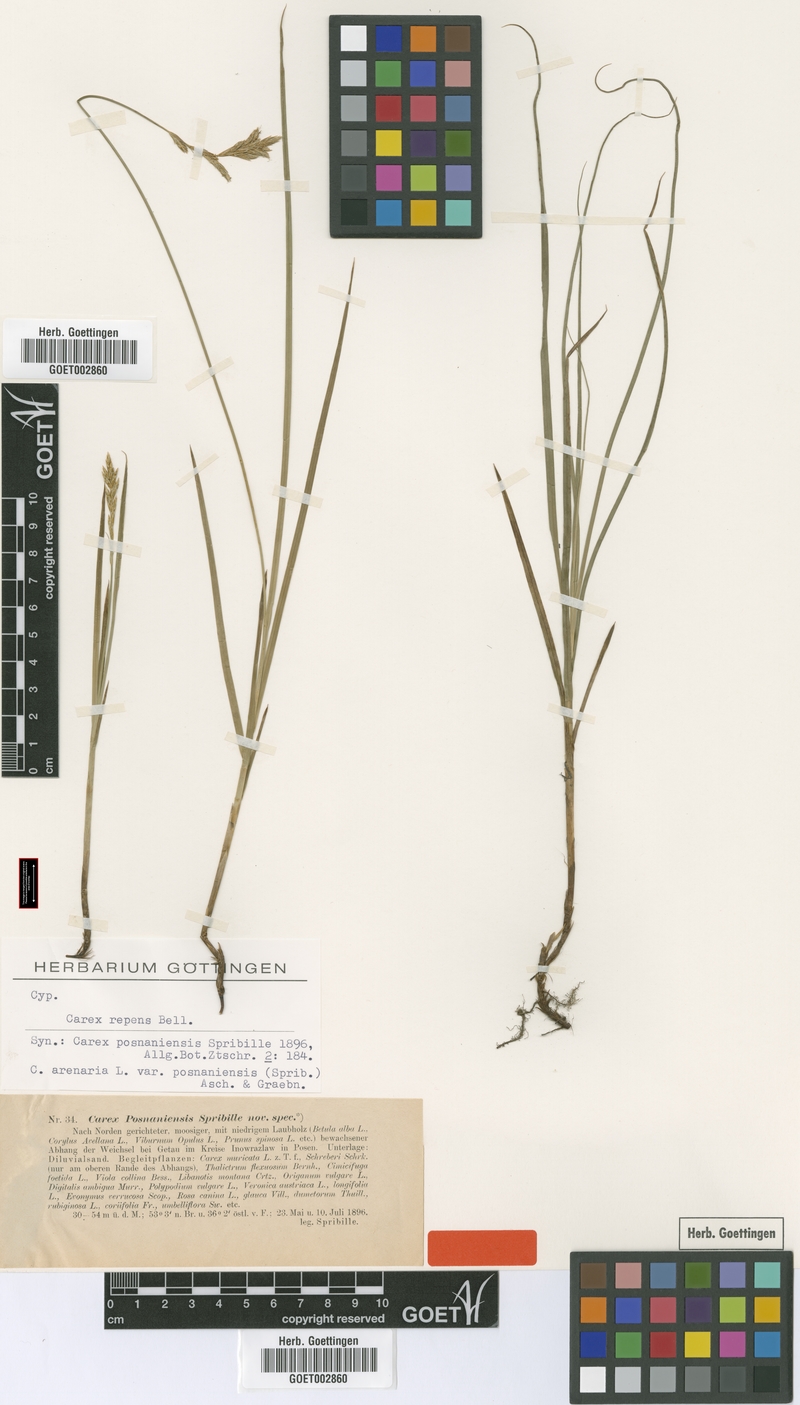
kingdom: Plantae
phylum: Tracheophyta
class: Liliopsida
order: Poales
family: Cyperaceae
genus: Carex
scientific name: Carex repens
